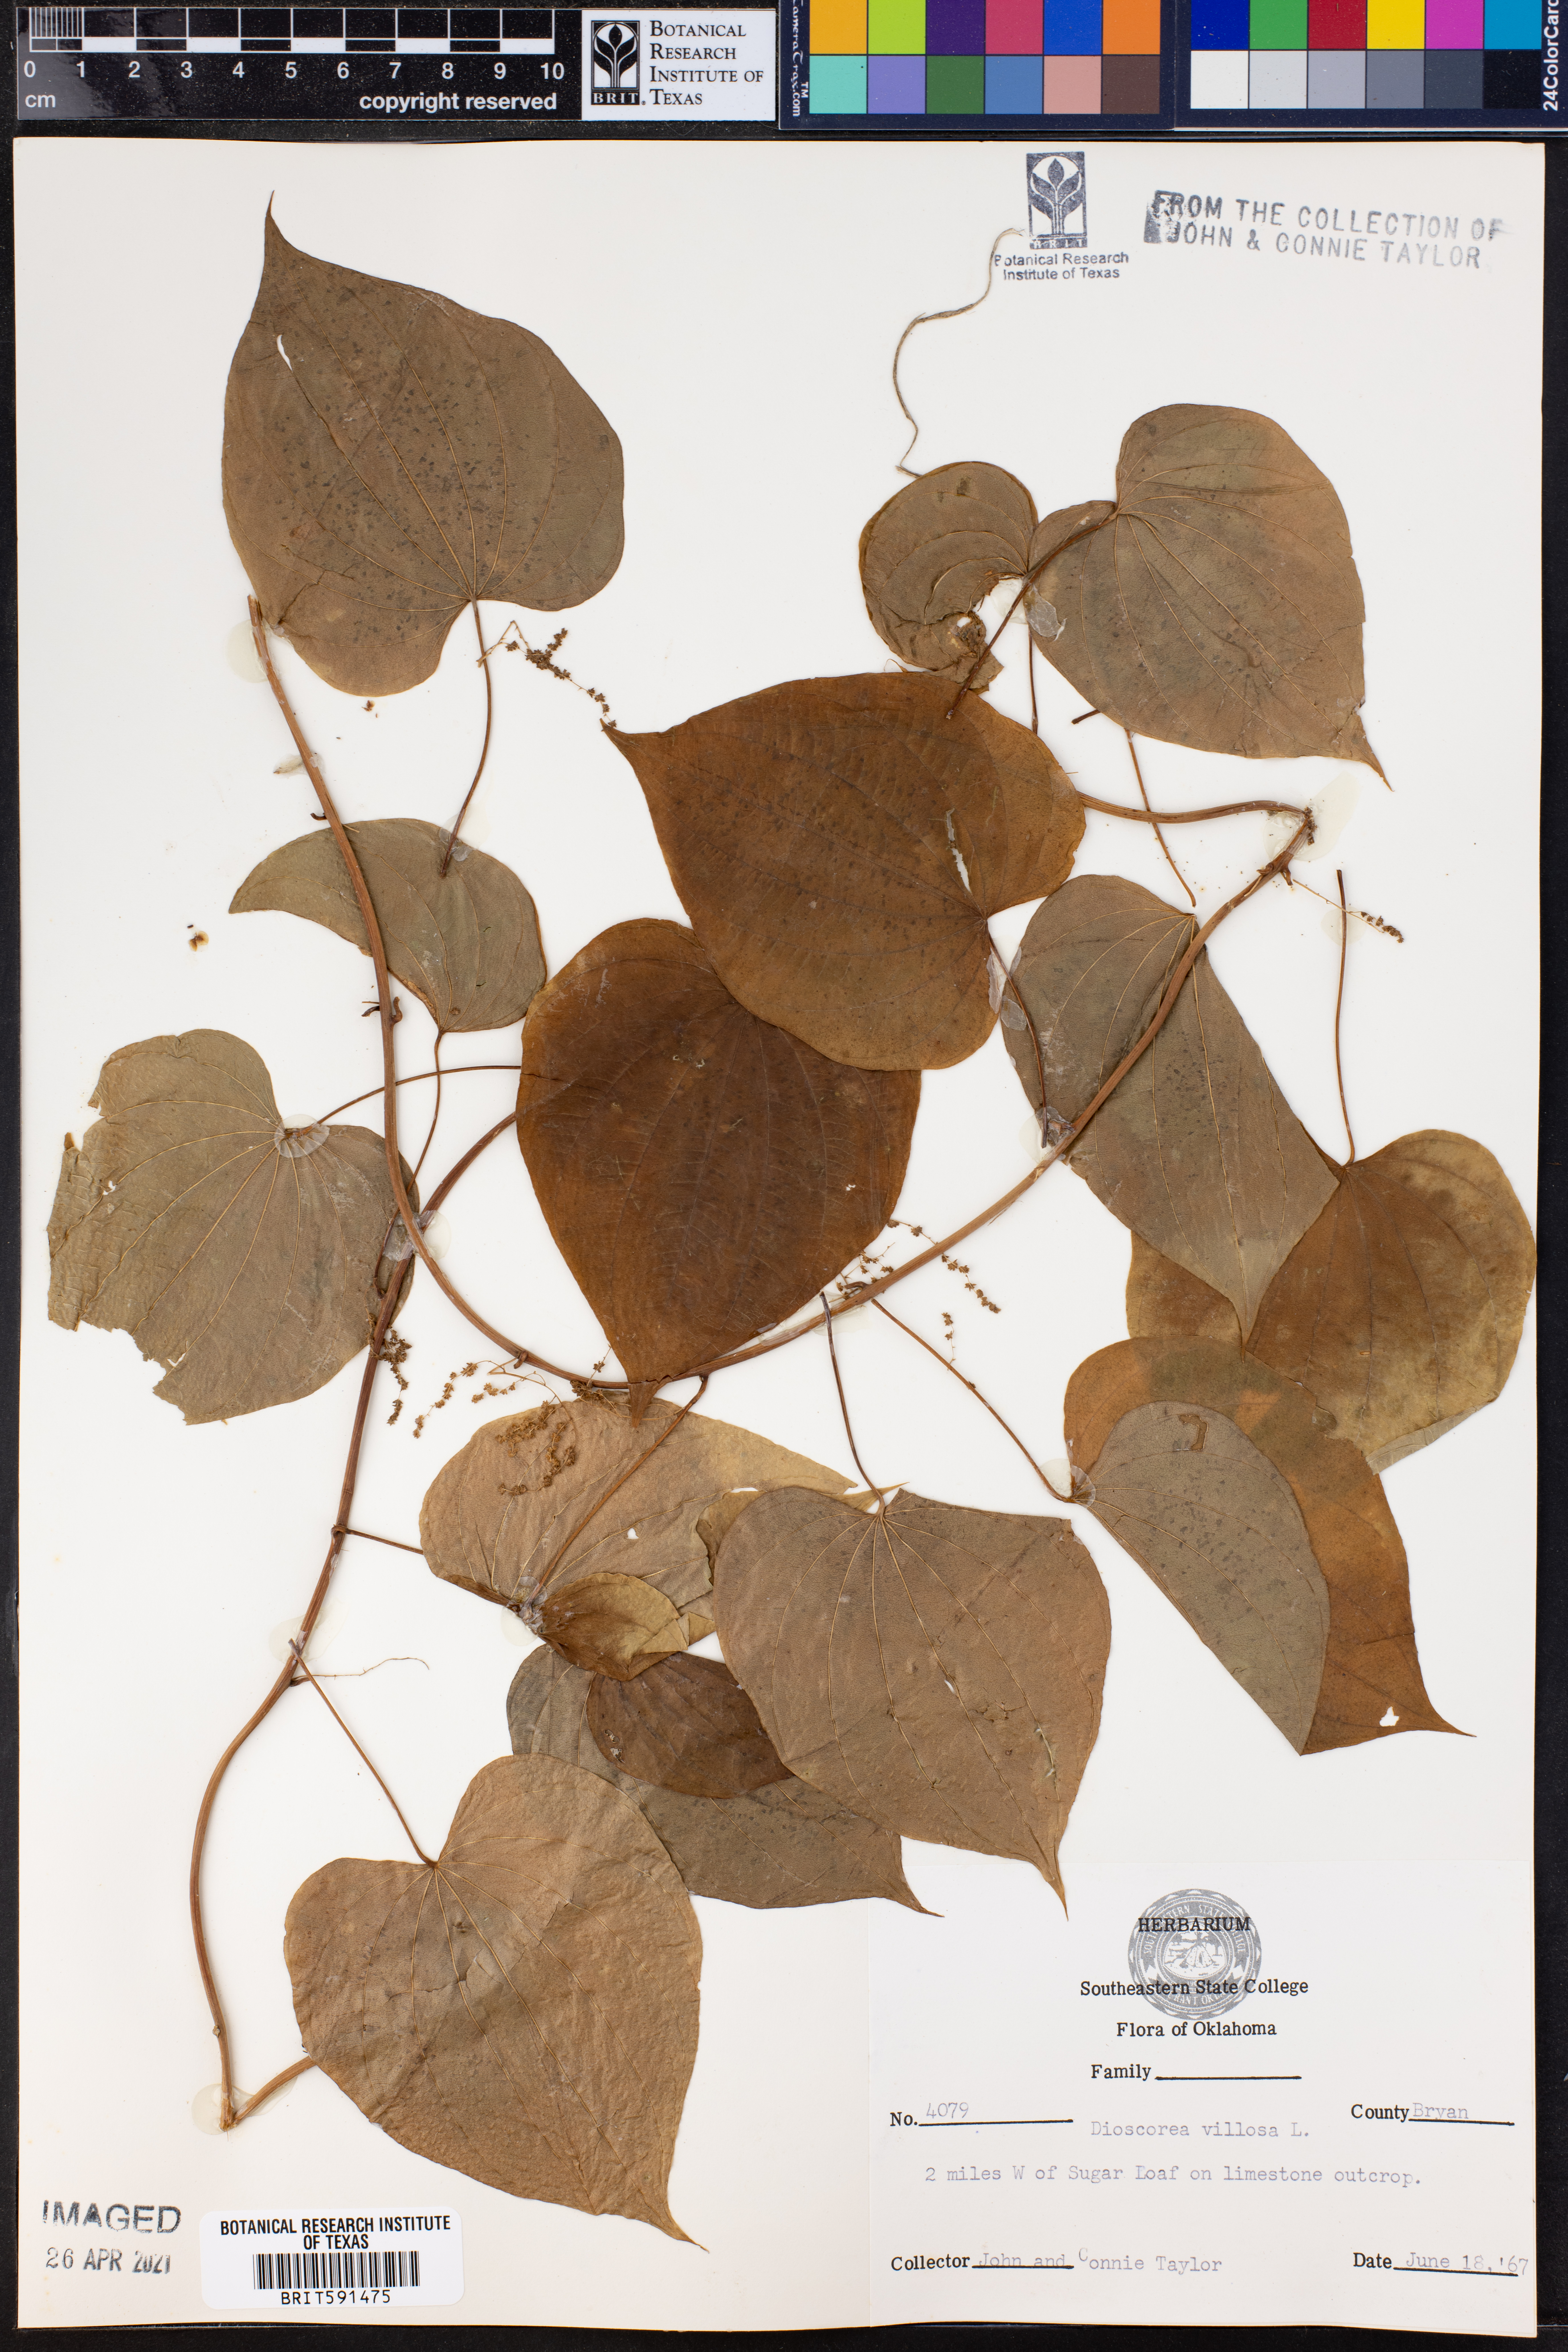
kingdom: Plantae
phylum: Tracheophyta
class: Liliopsida
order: Dioscoreales
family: Dioscoreaceae
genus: Dioscorea
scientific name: Dioscorea villosa
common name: Wild yam
